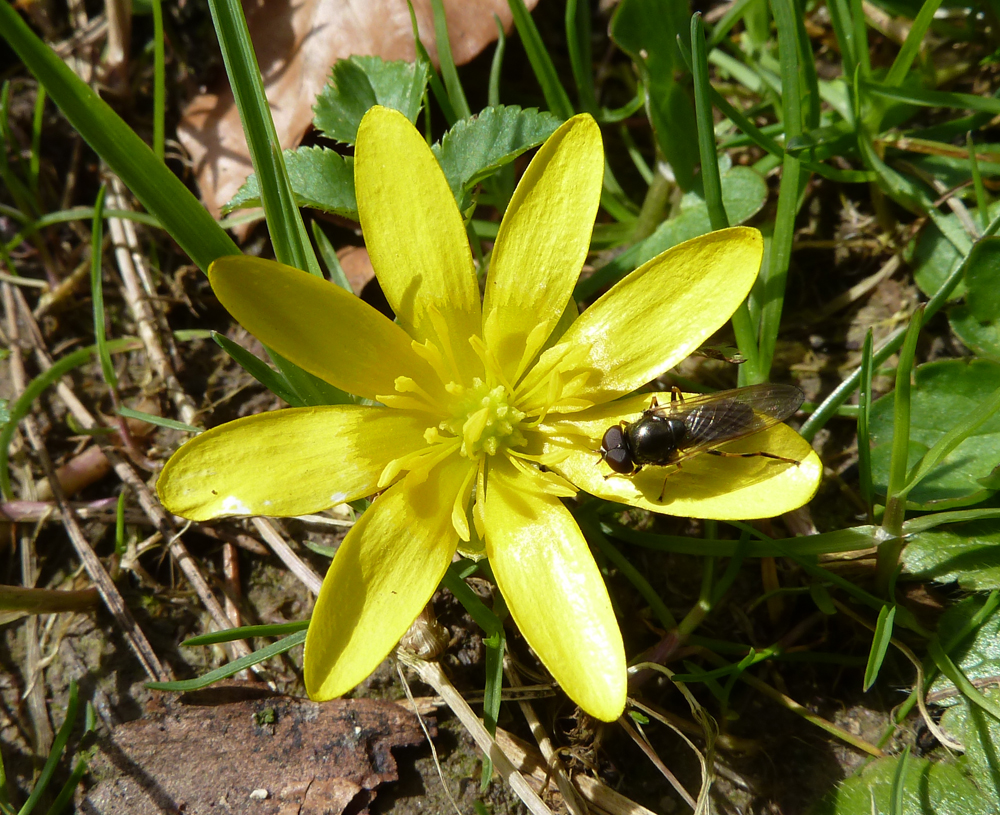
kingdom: Plantae
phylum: Tracheophyta
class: Magnoliopsida
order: Ranunculales
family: Ranunculaceae
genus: Ficaria
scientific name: Ficaria verna
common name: Lesser celandine
